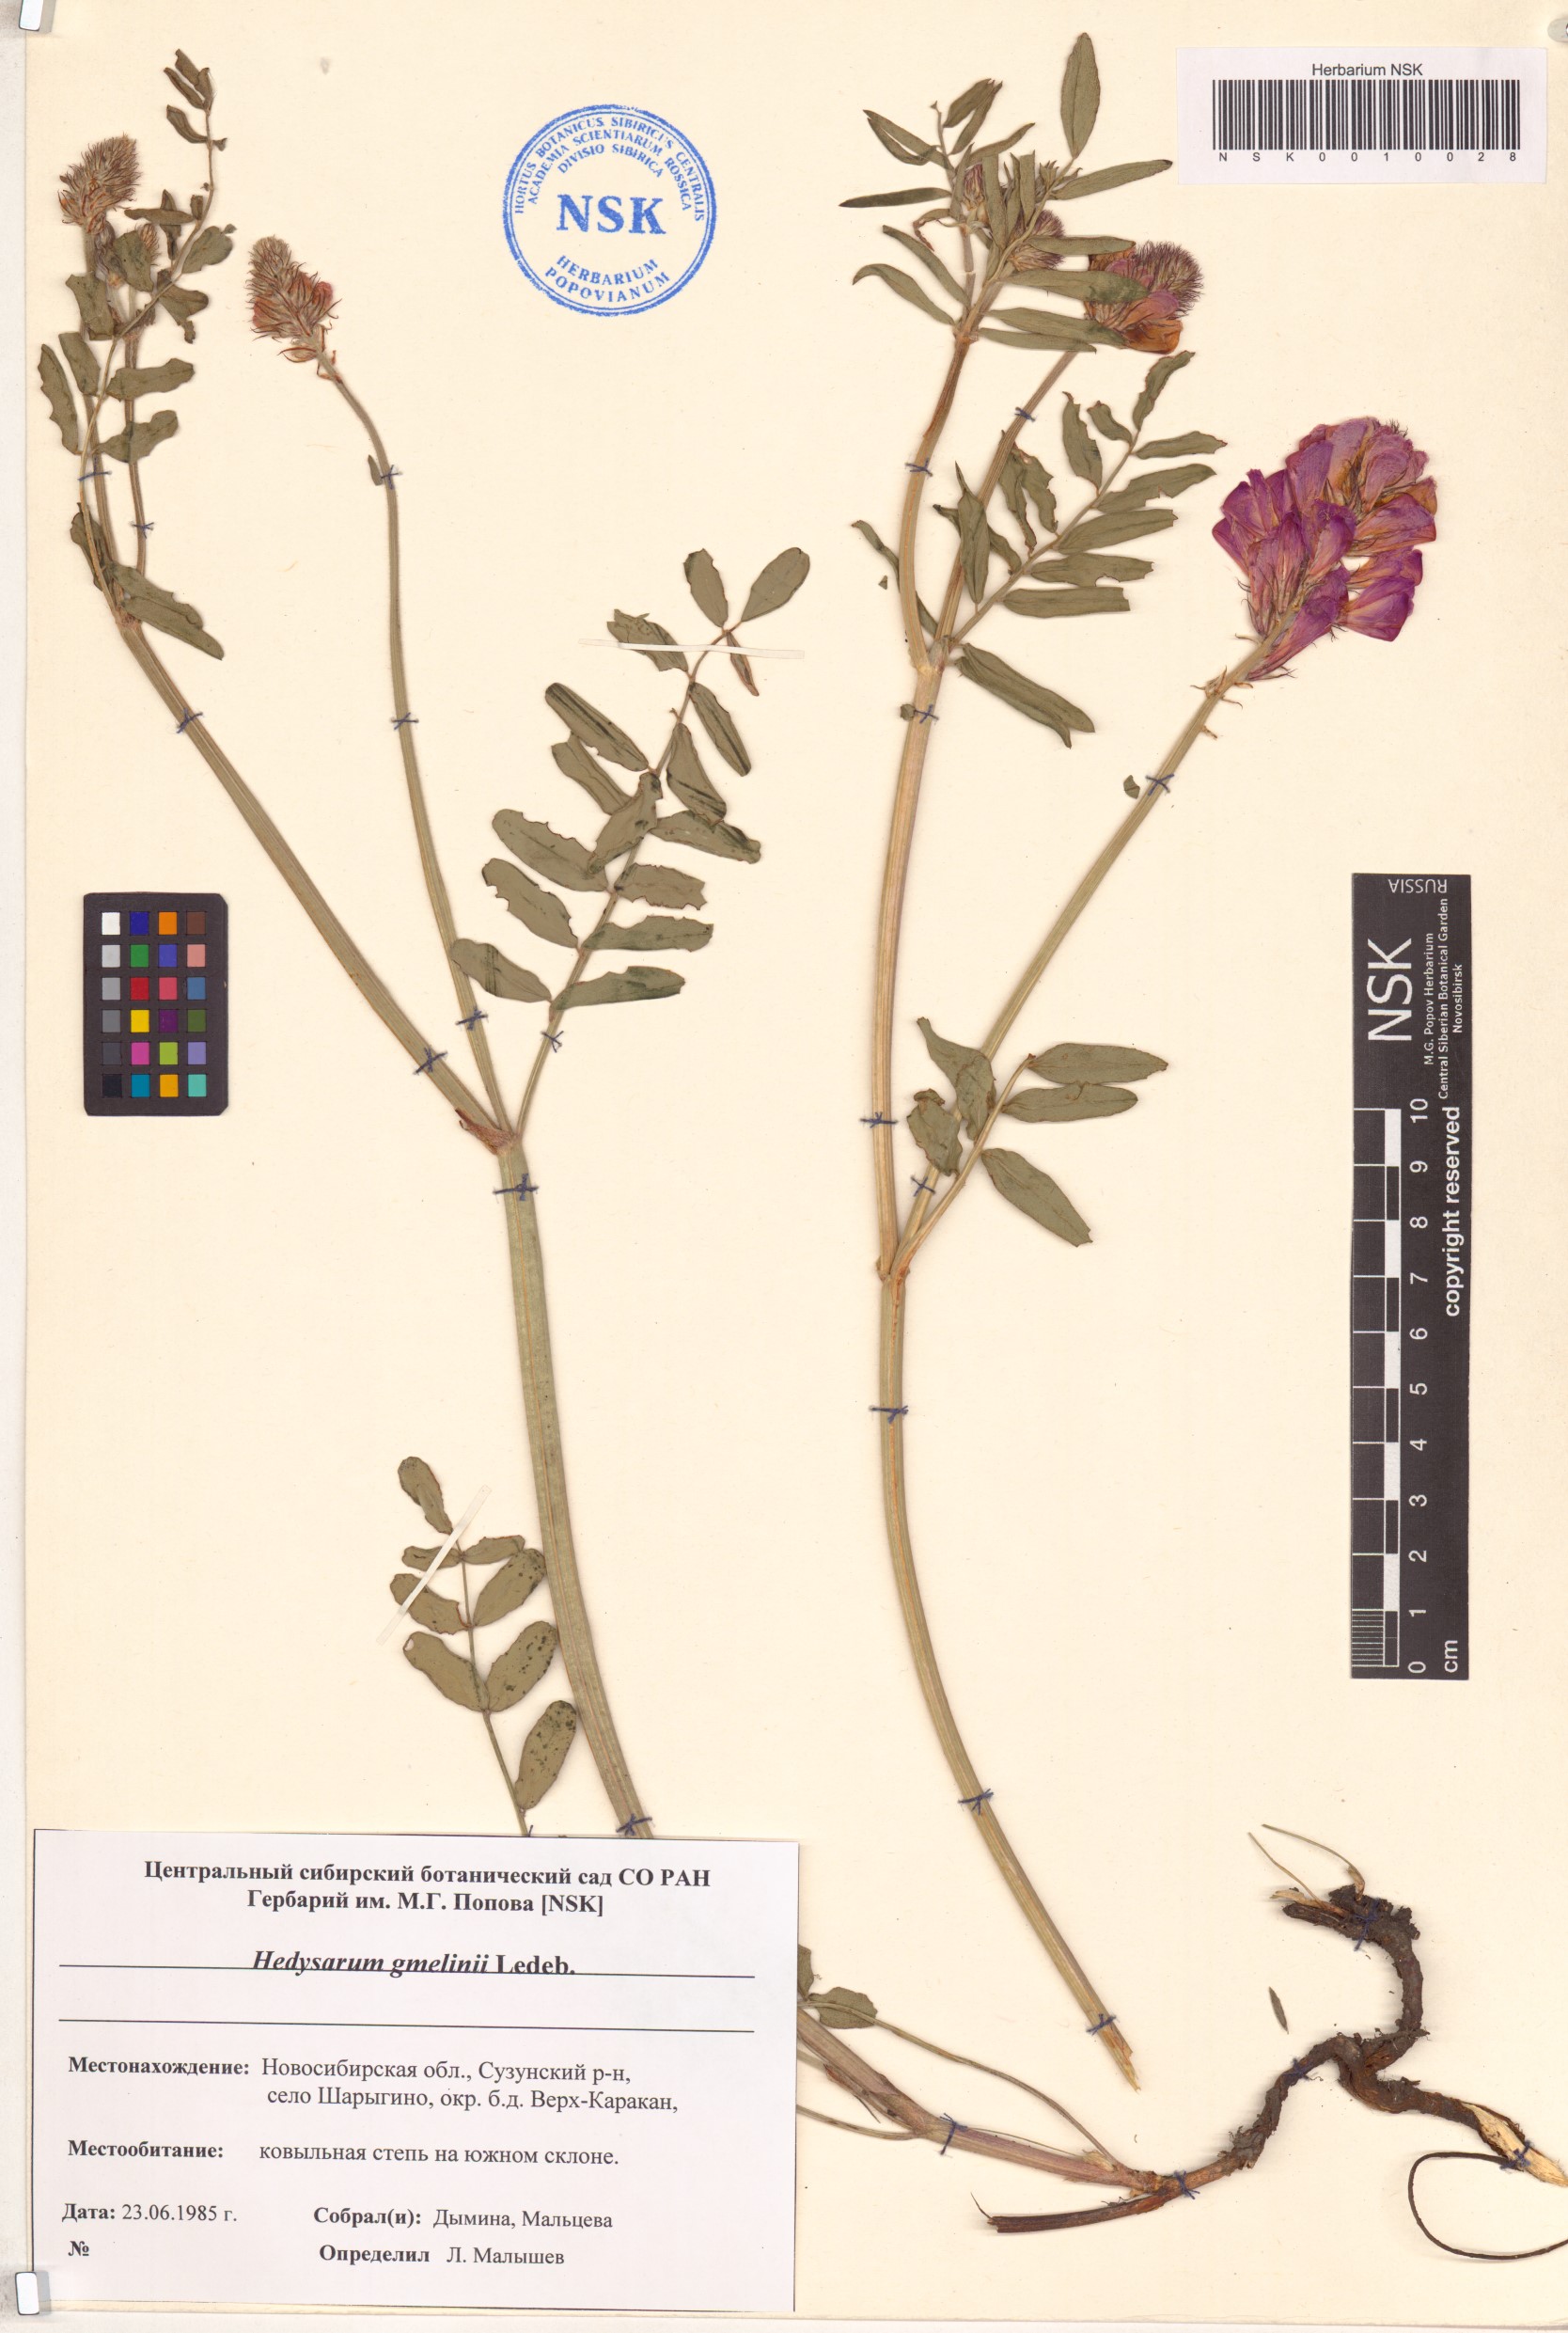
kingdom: Plantae
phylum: Tracheophyta
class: Magnoliopsida
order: Fabales
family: Fabaceae
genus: Hedysarum
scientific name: Hedysarum gmelinii
